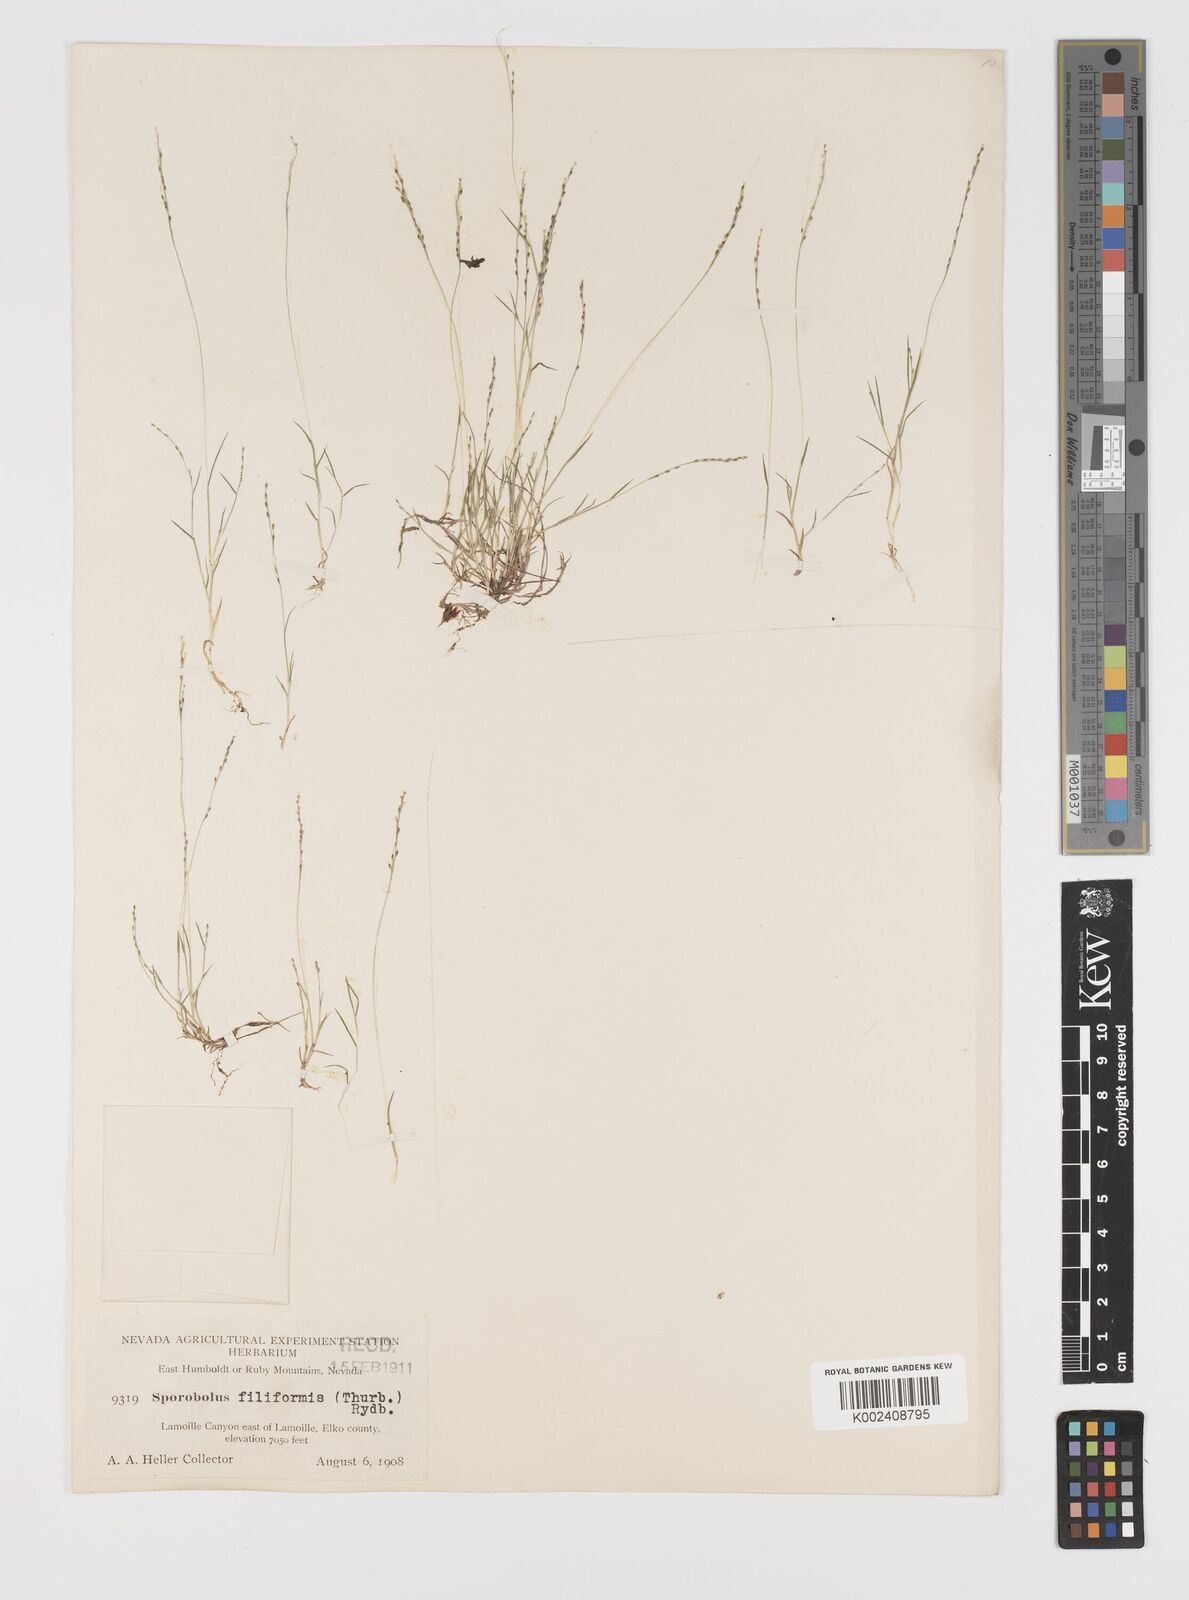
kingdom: Plantae
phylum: Tracheophyta
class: Liliopsida
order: Poales
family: Poaceae
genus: Leptochloa
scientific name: Leptochloa mucronata
